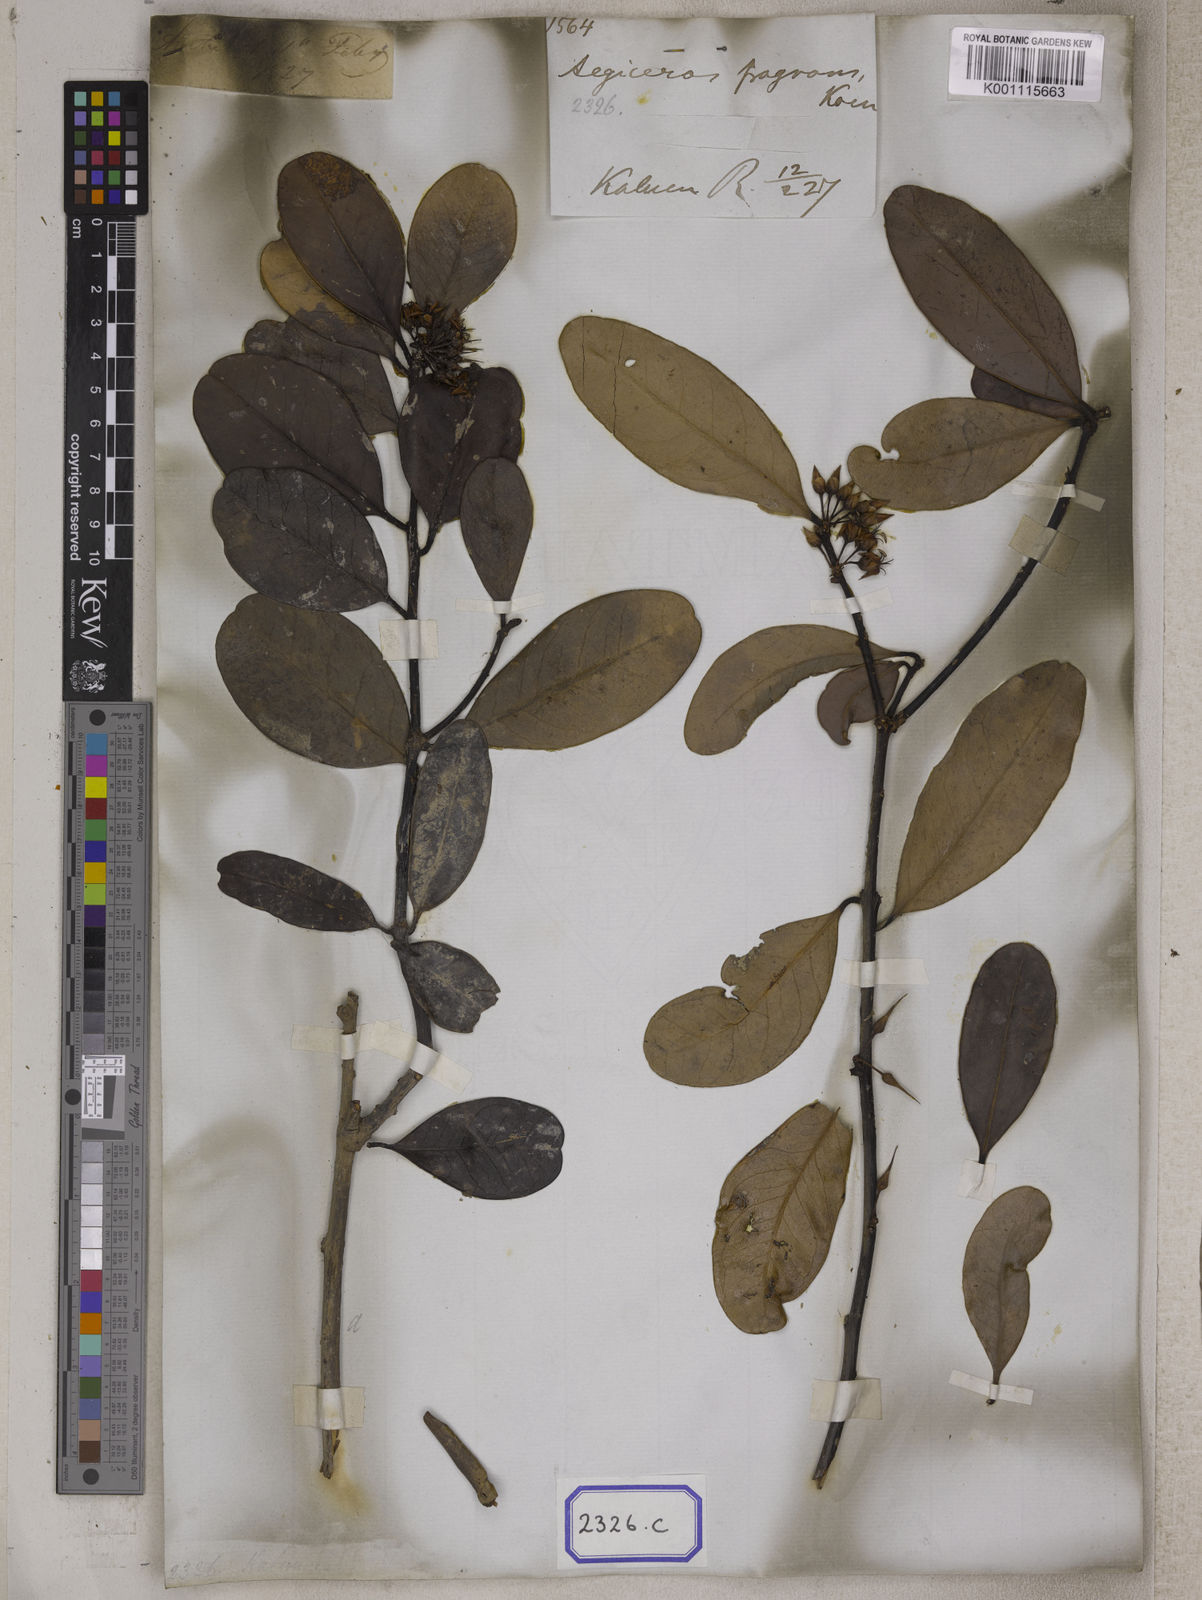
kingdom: Plantae
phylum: Tracheophyta
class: Magnoliopsida
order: Ericales
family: Primulaceae
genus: Aegiceras
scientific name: Aegiceras corniculatum
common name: River mangrove
